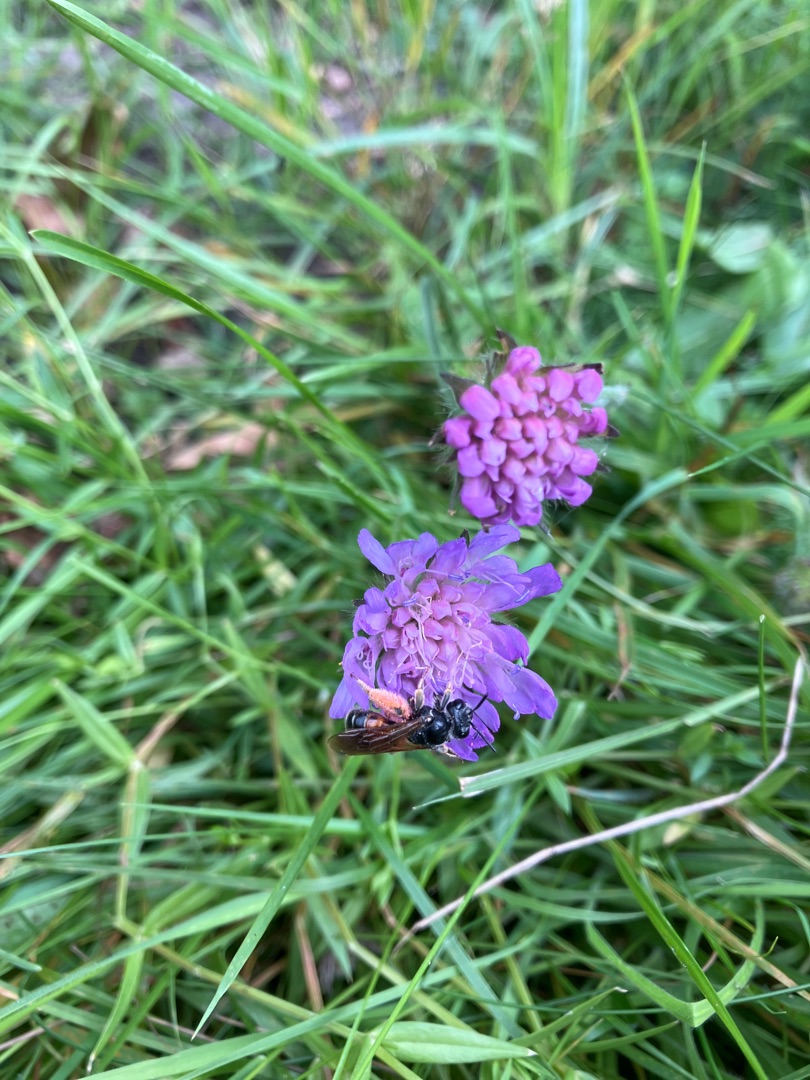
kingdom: Animalia
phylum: Arthropoda
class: Insecta
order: Hymenoptera
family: Andrenidae
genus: Andrena
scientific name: Andrena hattorfiana
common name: Blåhatjordbi
